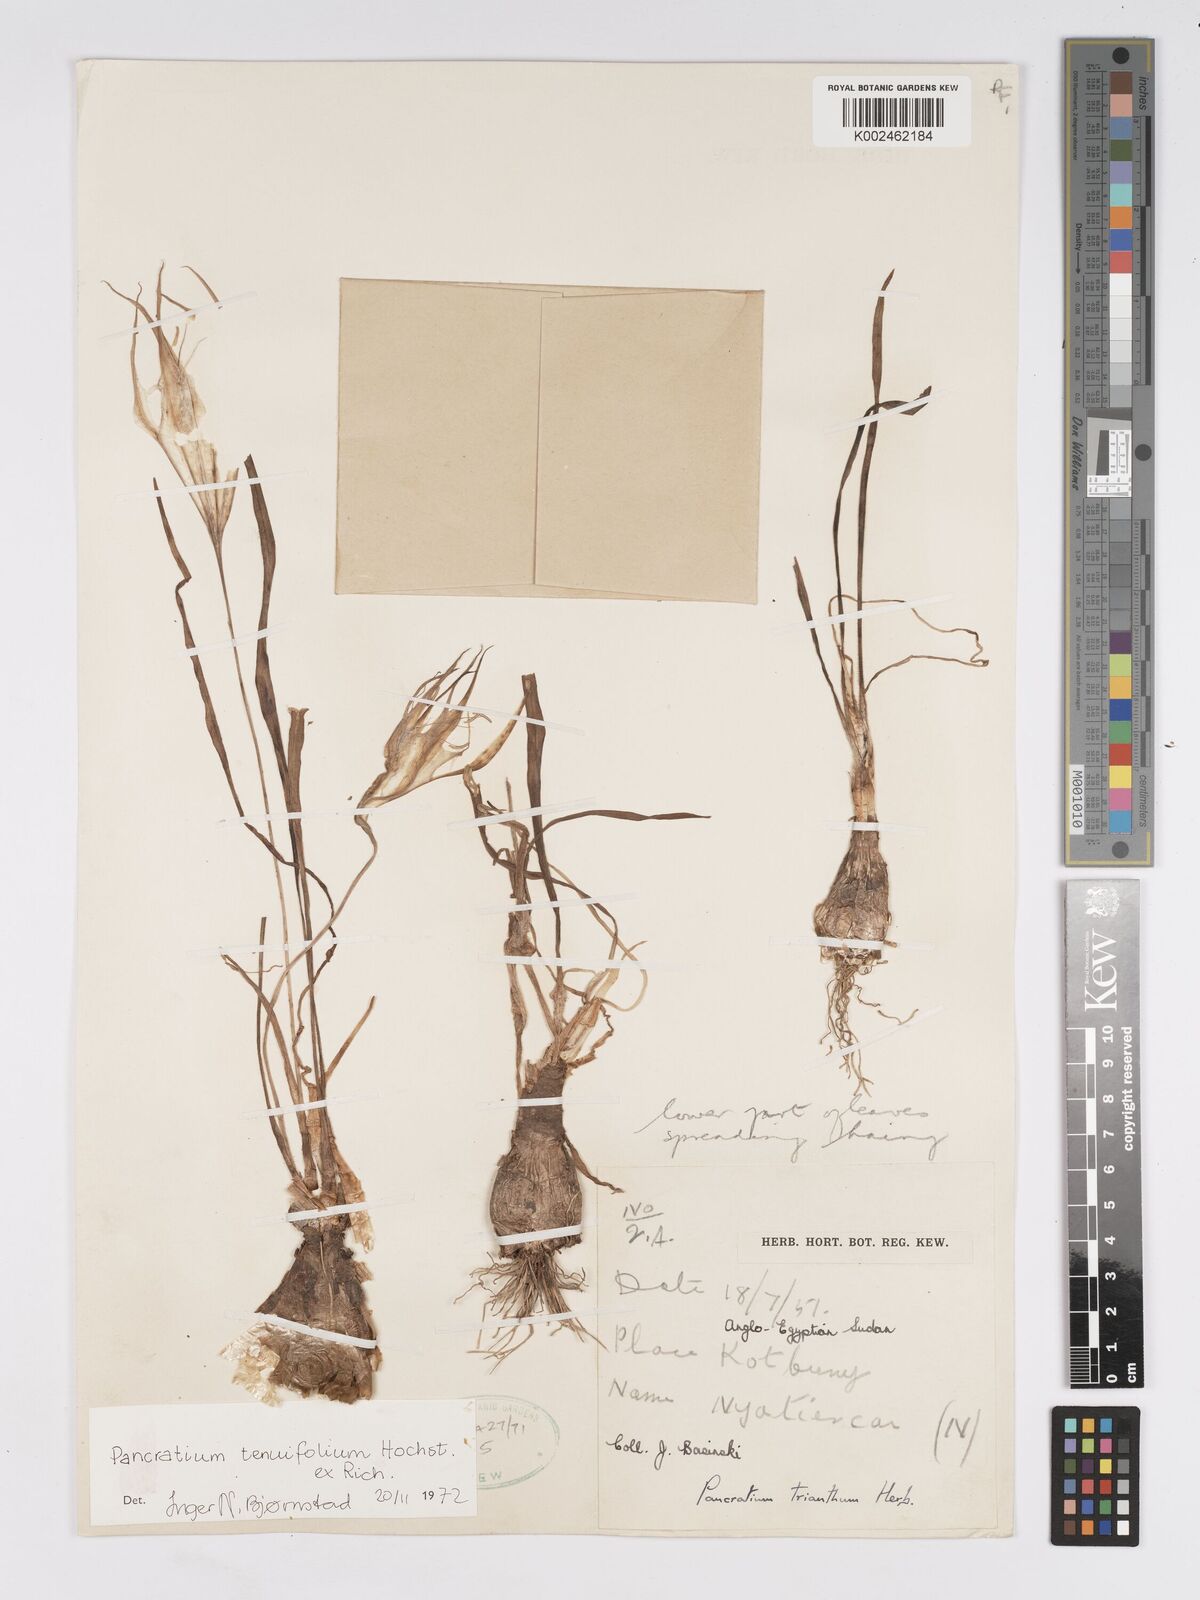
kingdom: Plantae
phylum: Tracheophyta
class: Liliopsida
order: Asparagales
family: Amaryllidaceae
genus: Pancratium
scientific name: Pancratium tenuifolium
